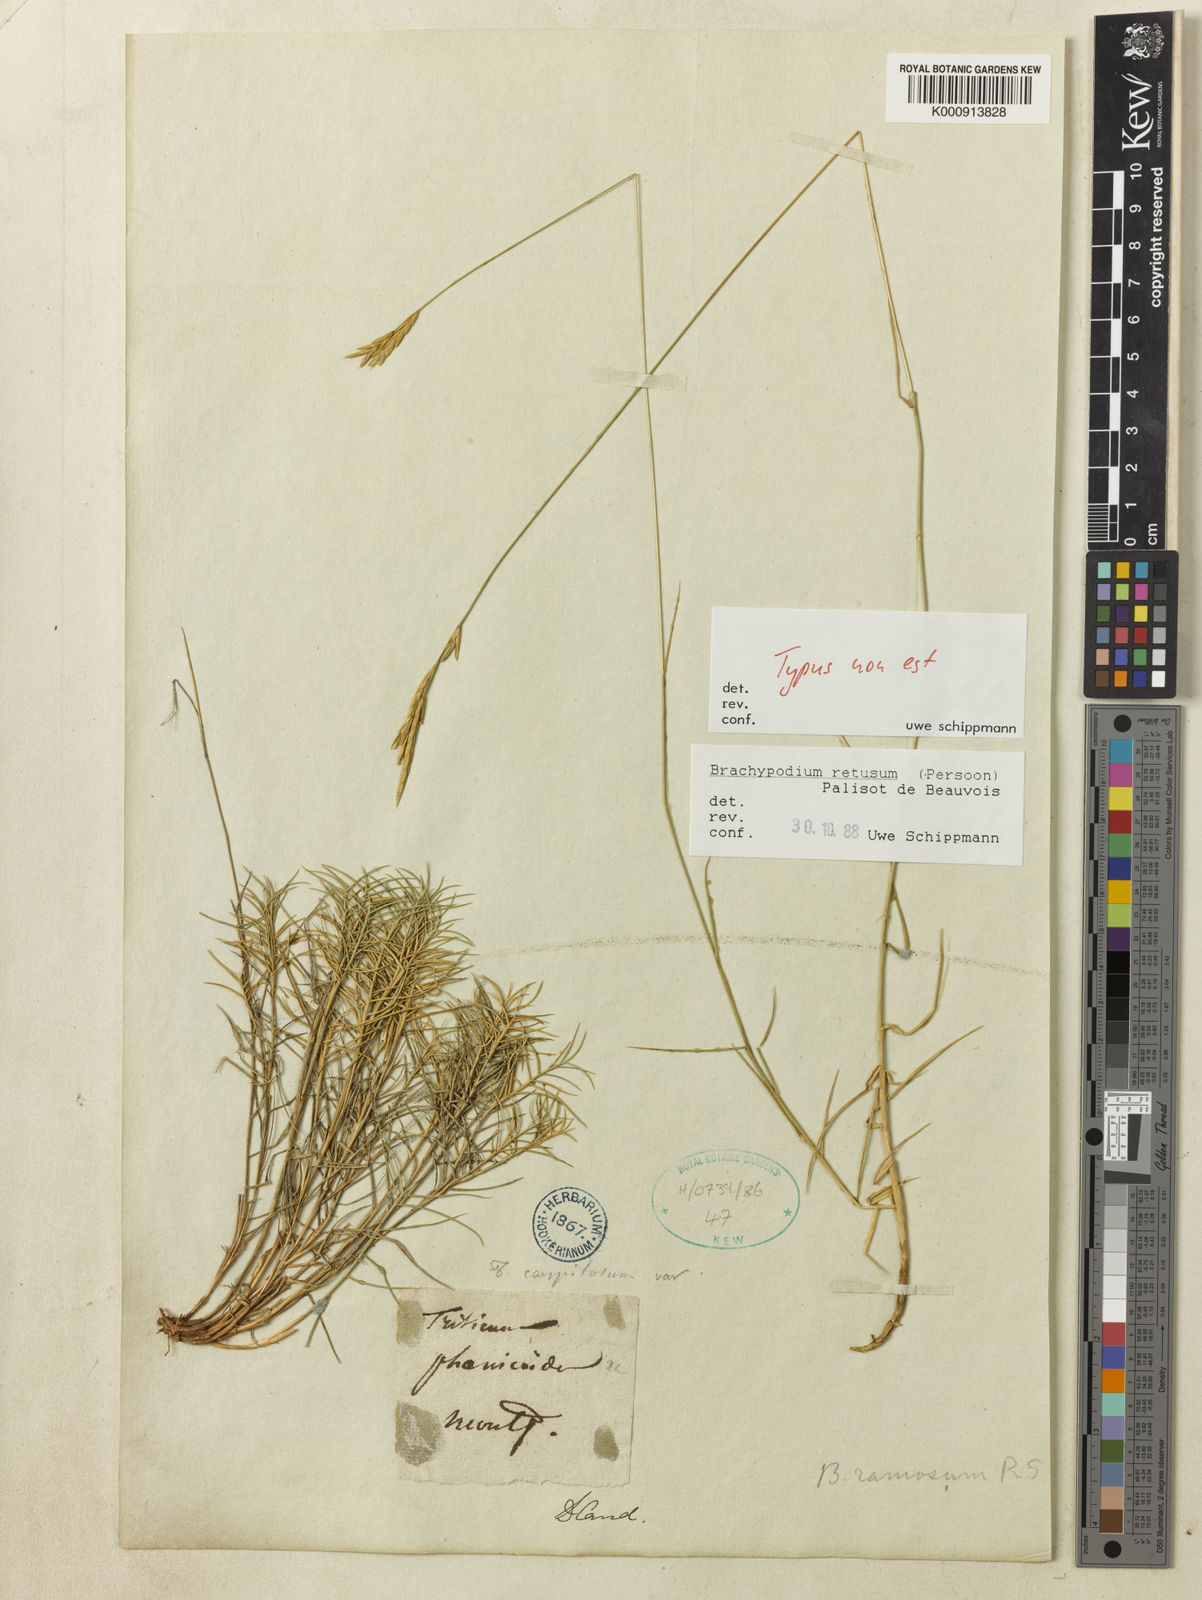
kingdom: Plantae
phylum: Tracheophyta
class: Liliopsida
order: Poales
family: Poaceae
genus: Brachypodium
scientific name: Brachypodium retusum
